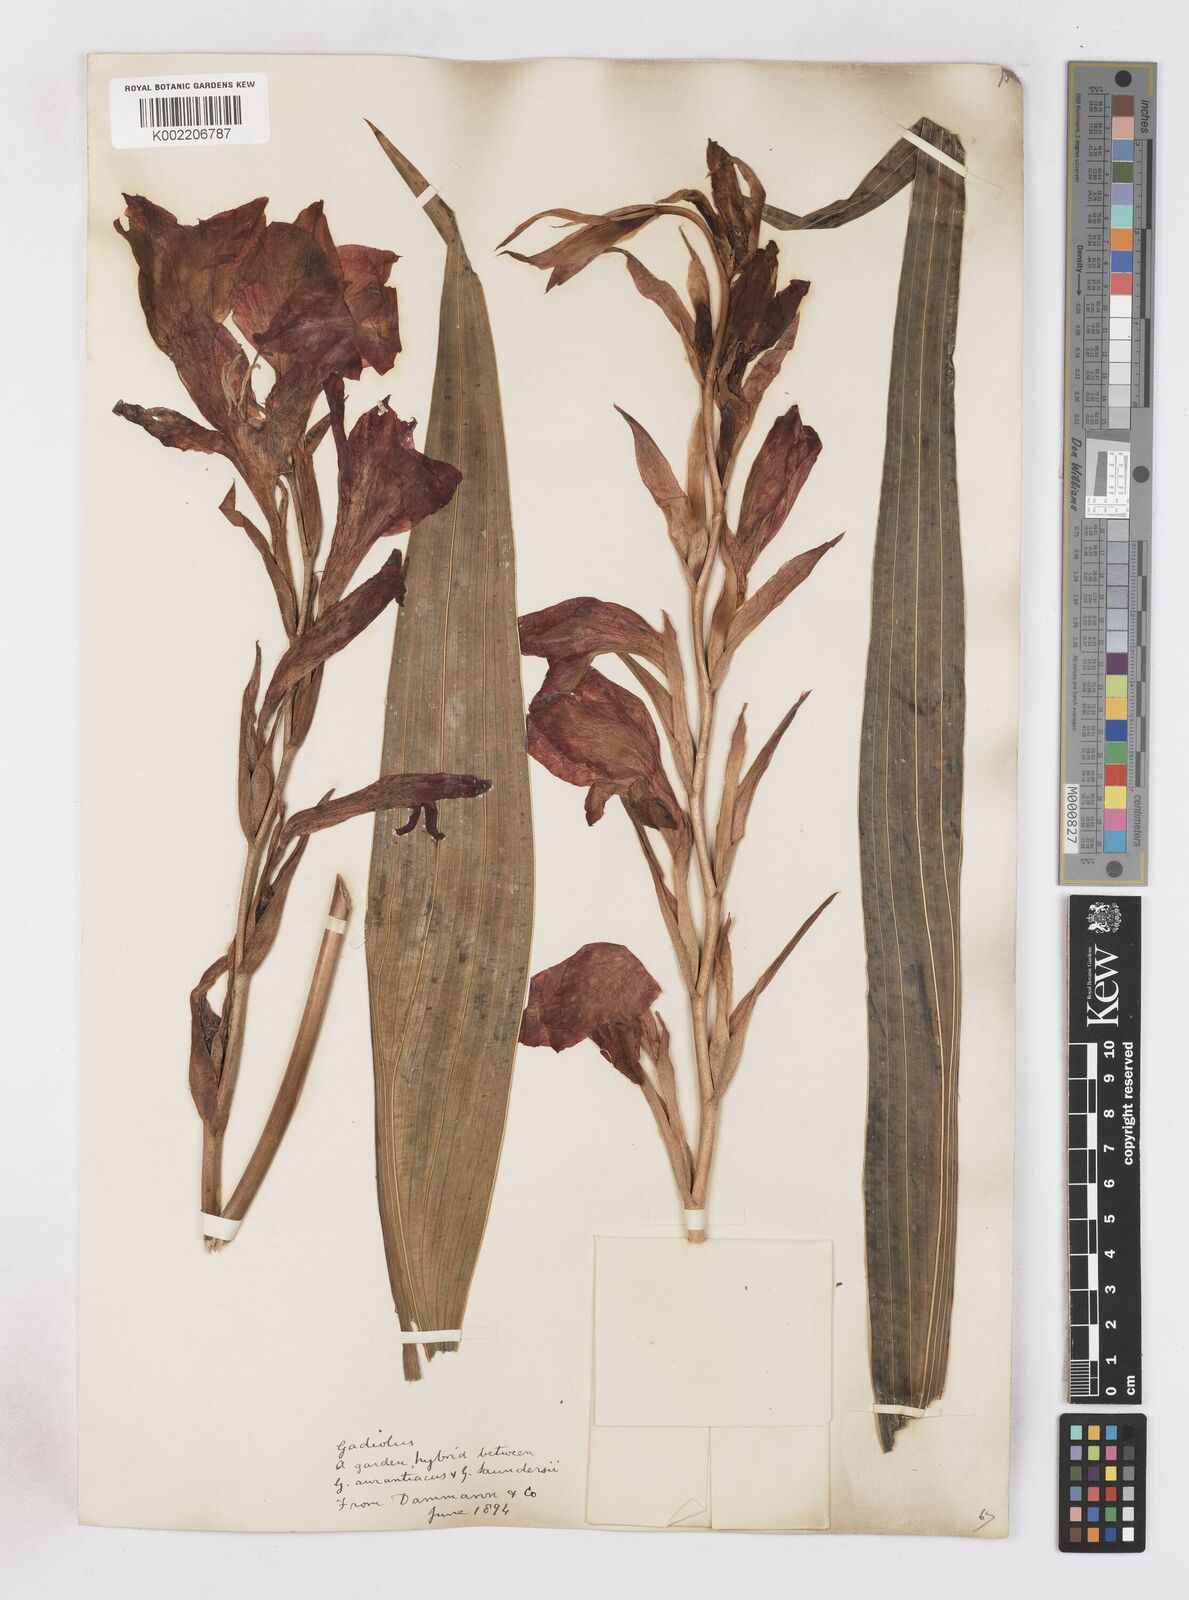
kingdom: Plantae
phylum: Tracheophyta
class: Liliopsida
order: Asparagales
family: Iridaceae
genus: Gladiolus
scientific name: Gladiolus saundersii
